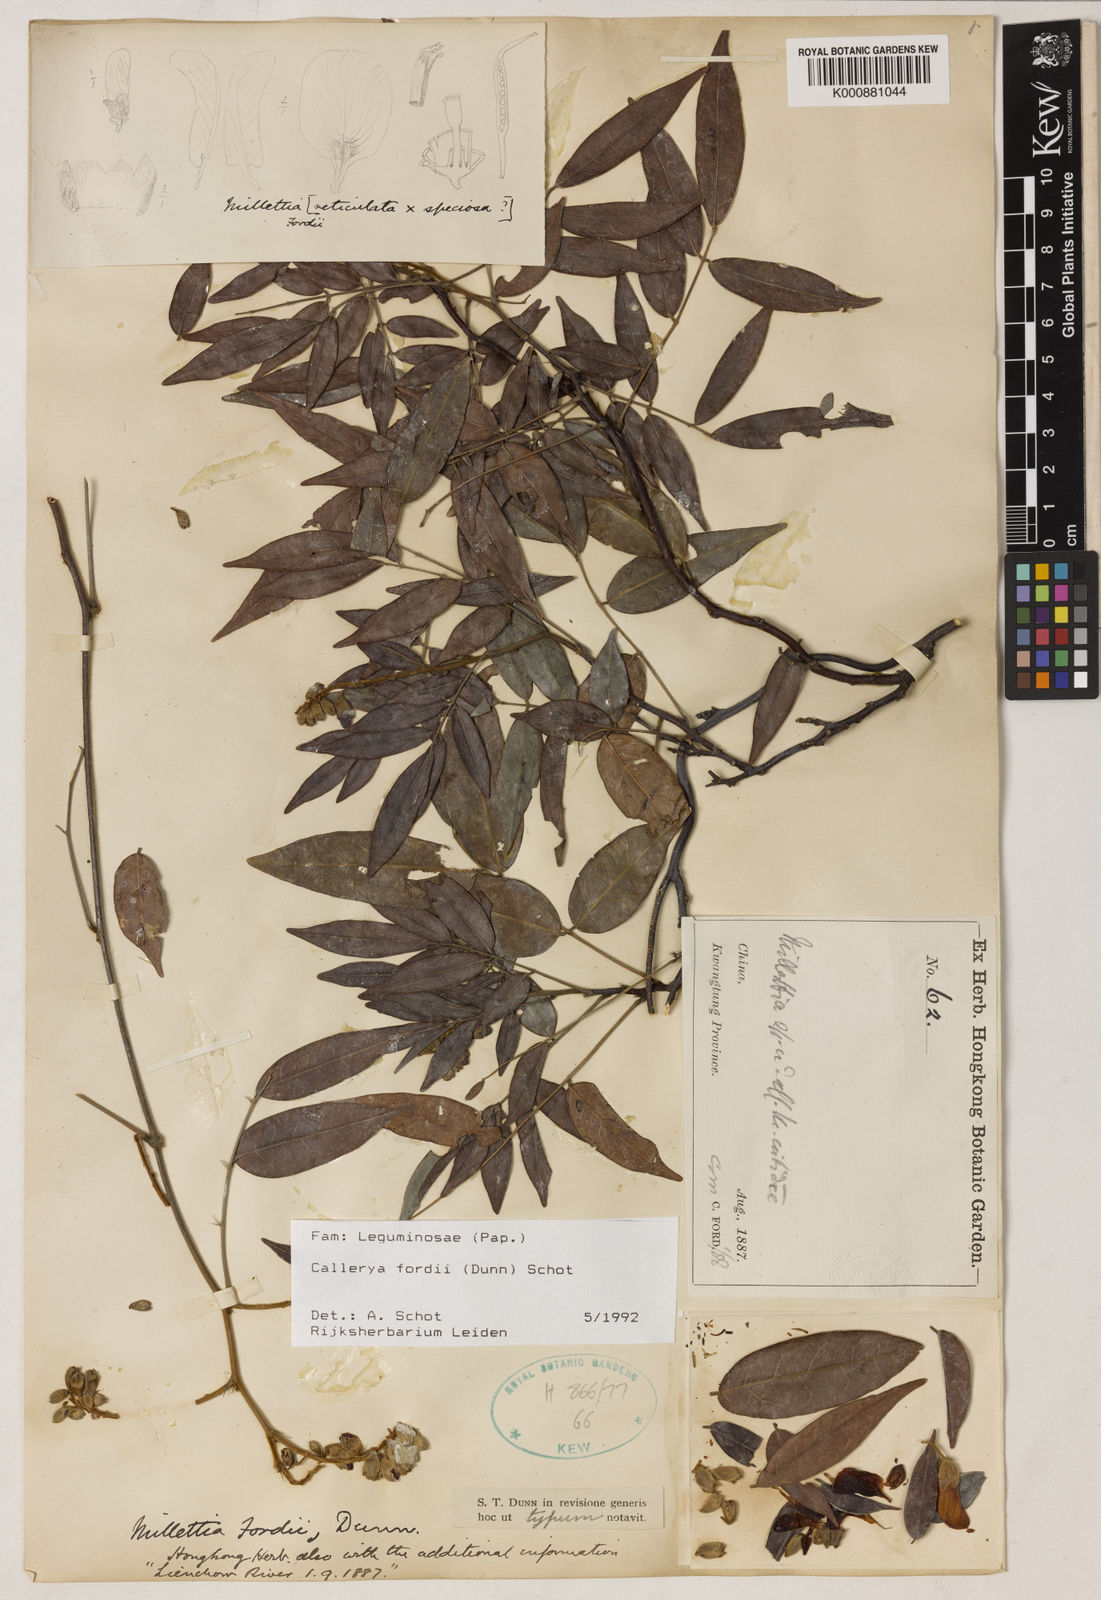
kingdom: Plantae
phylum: Tracheophyta
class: Magnoliopsida
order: Fabales
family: Fabaceae
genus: Nanhaia
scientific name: Nanhaia fordii
